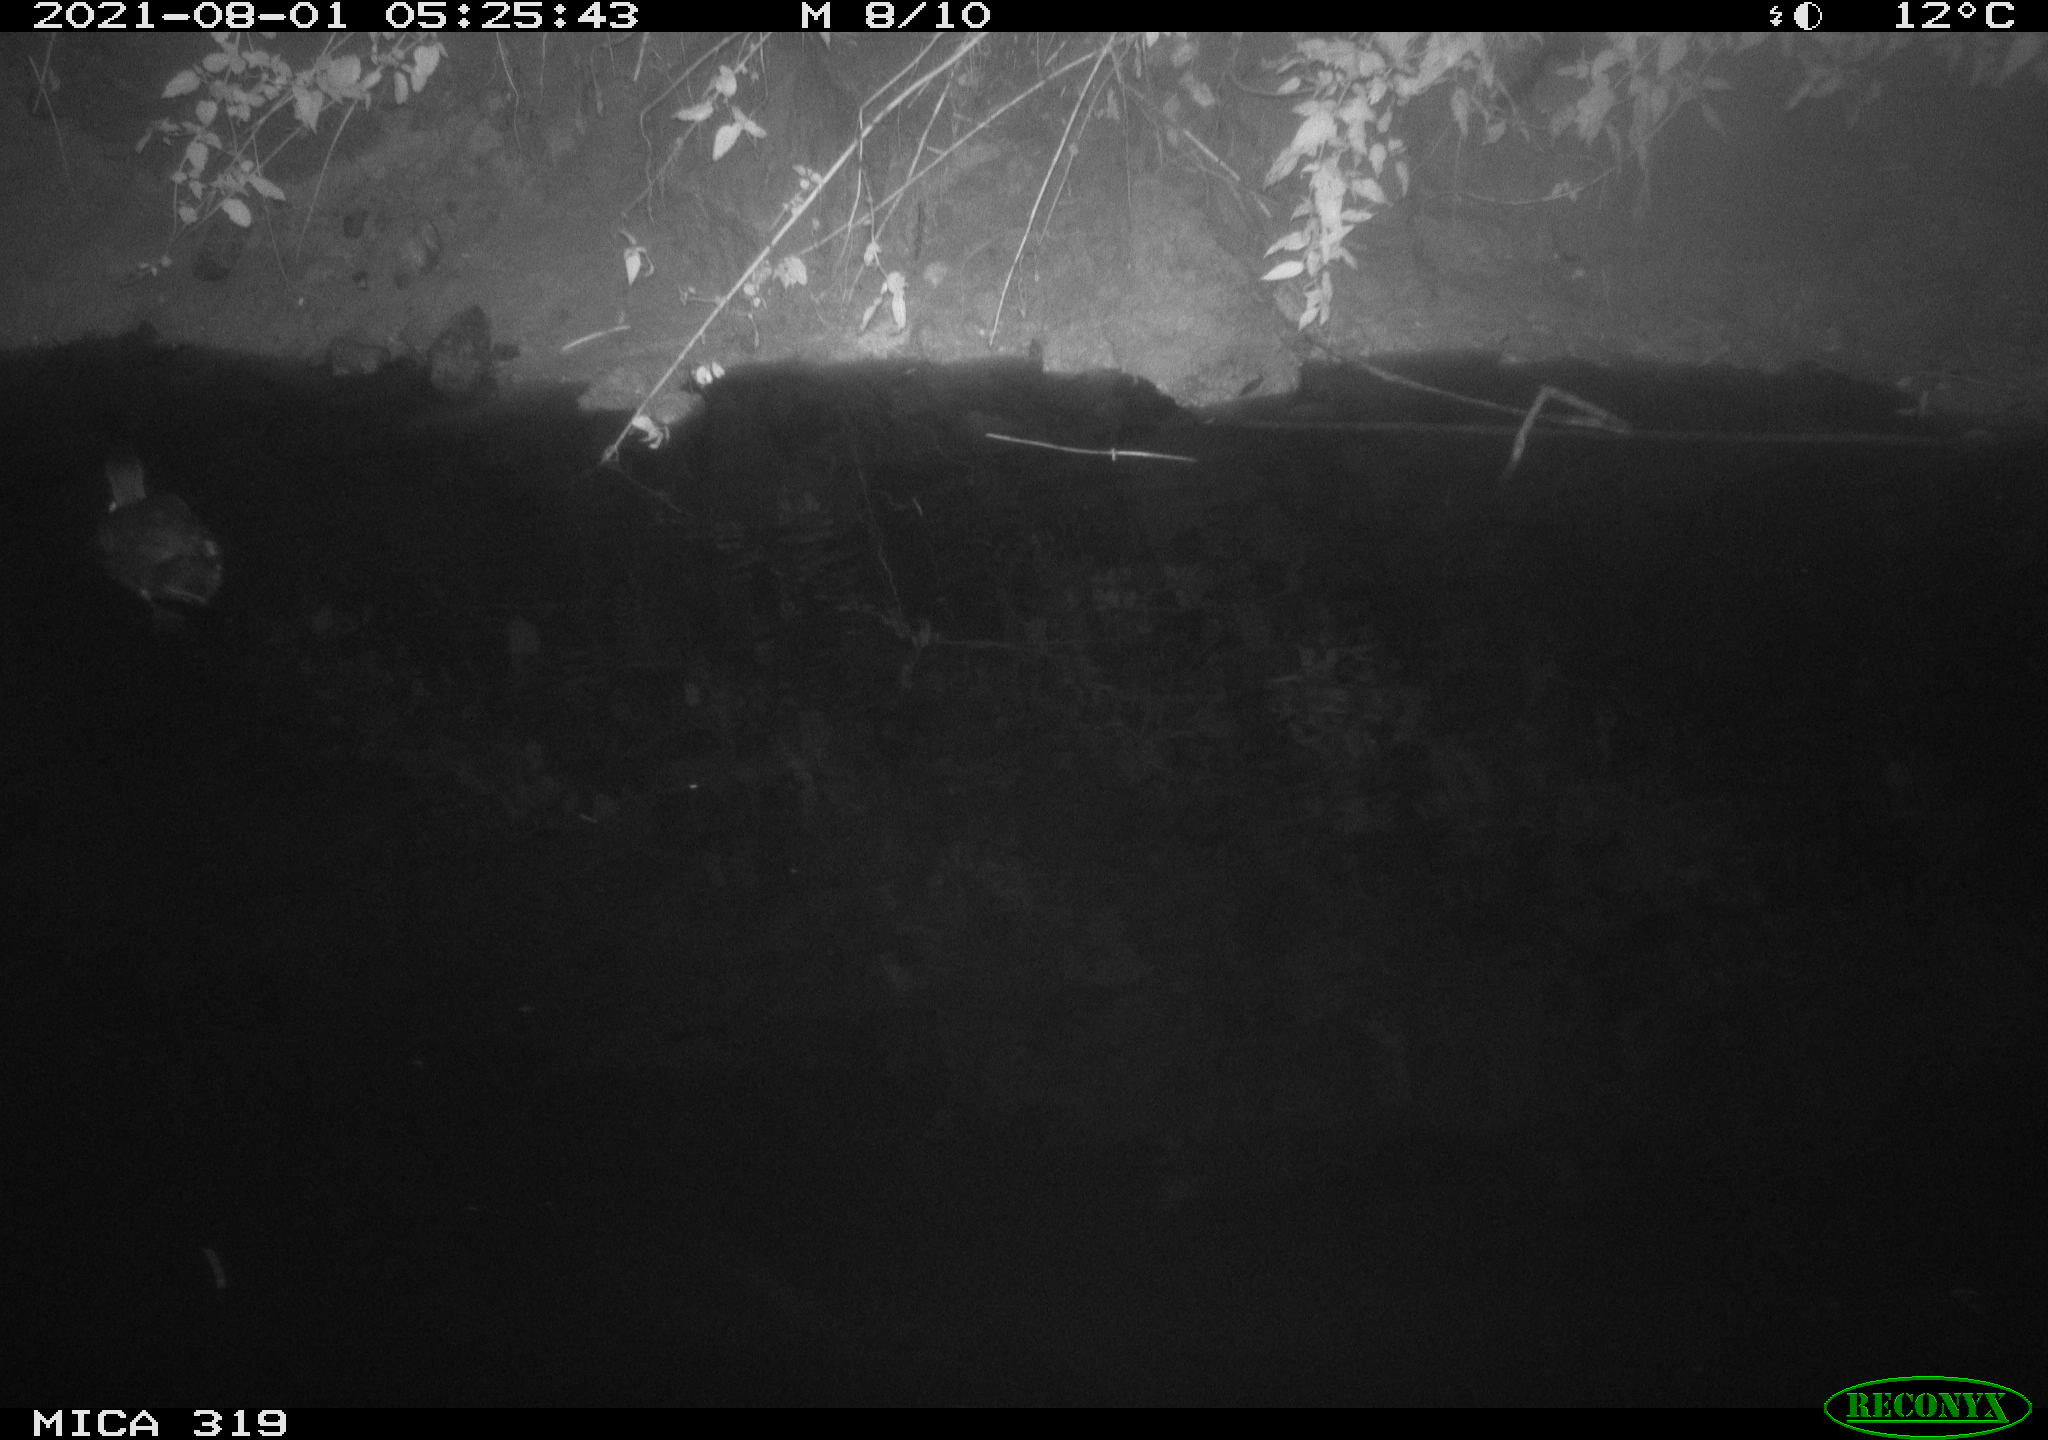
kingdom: Animalia
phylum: Chordata
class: Aves
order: Anseriformes
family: Anatidae
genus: Anas
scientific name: Anas platyrhynchos
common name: Mallard
